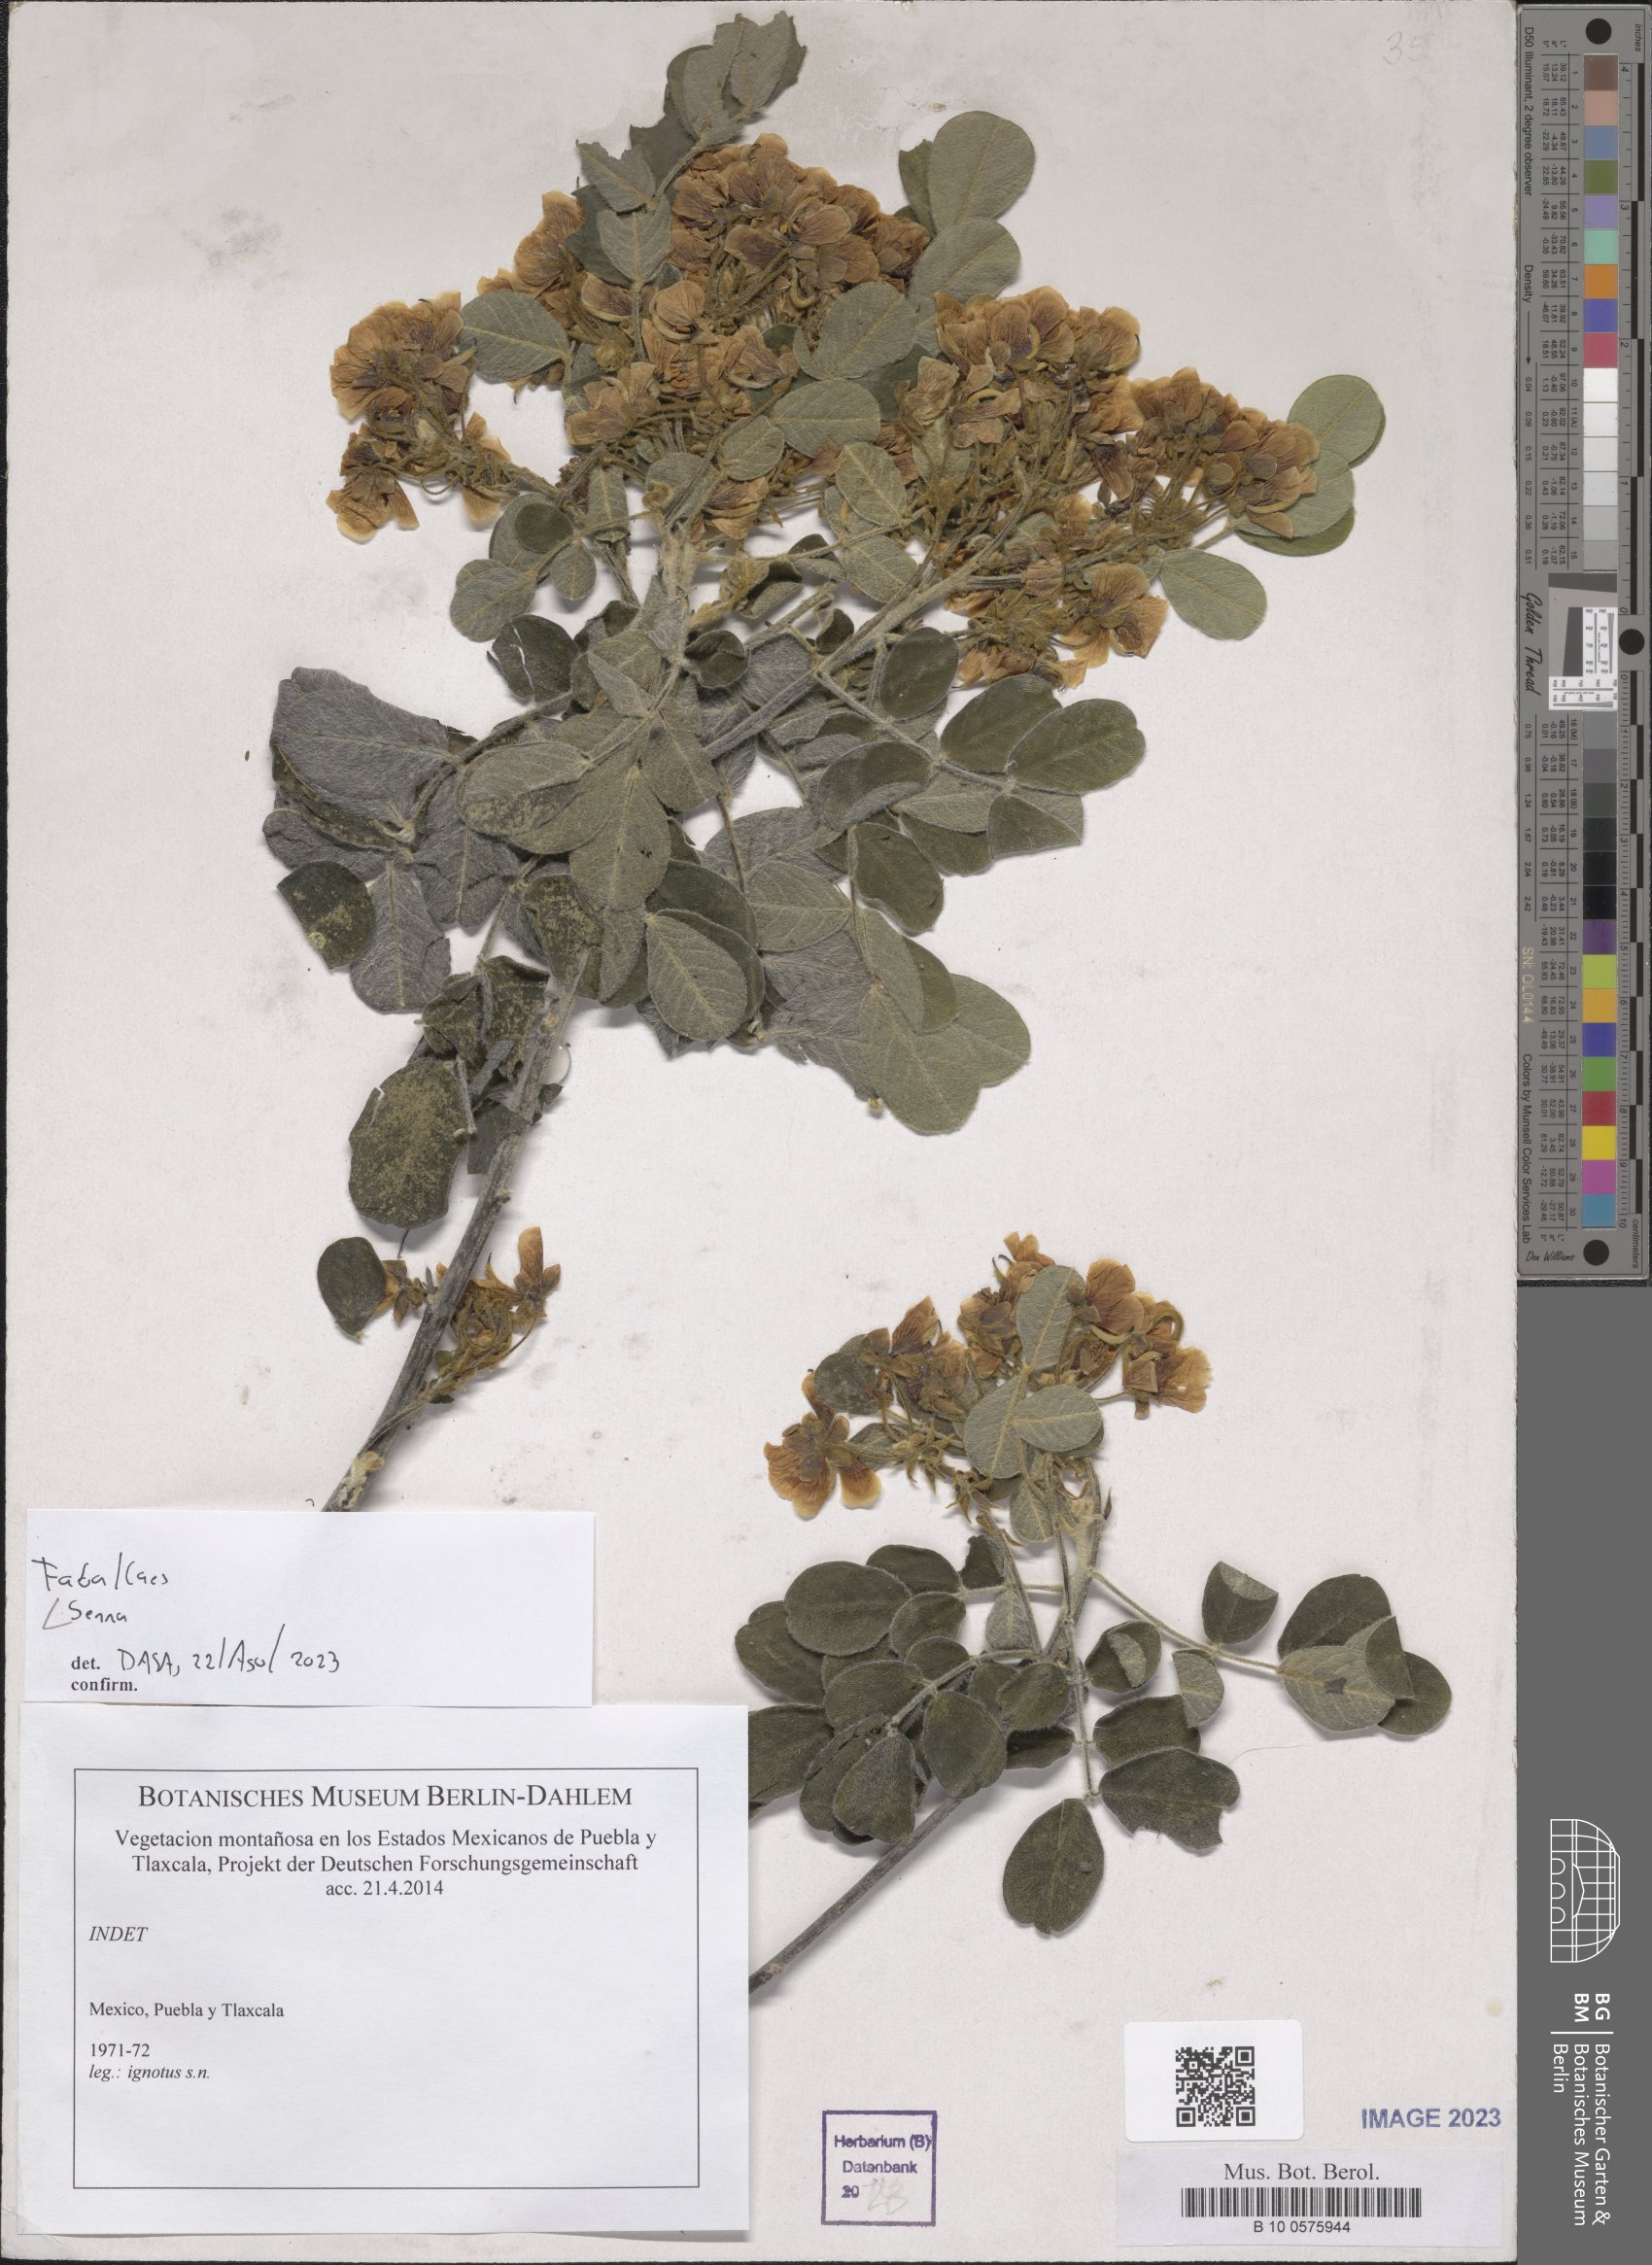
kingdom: Plantae
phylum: Tracheophyta
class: Magnoliopsida
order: Fabales
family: Fabaceae
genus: Senna
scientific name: Senna
